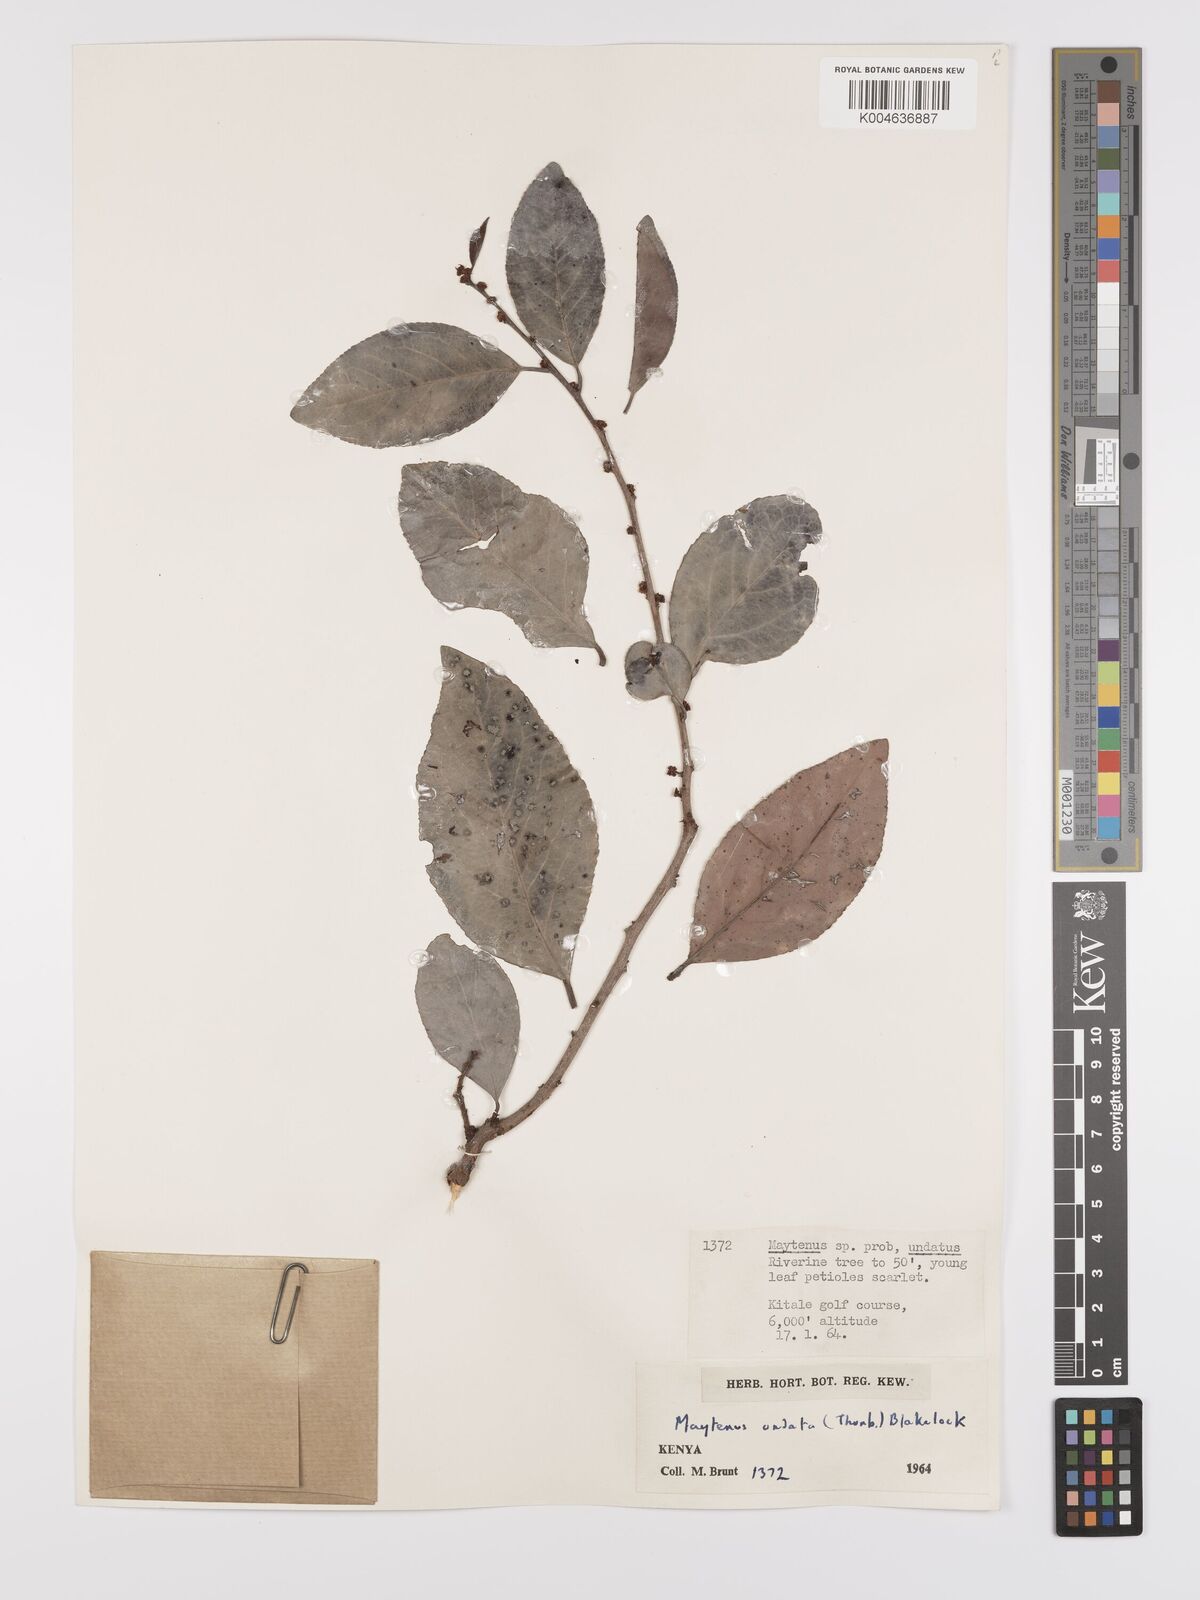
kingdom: Plantae
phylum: Tracheophyta
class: Magnoliopsida
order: Celastrales
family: Celastraceae
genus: Gymnosporia
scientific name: Gymnosporia undata
